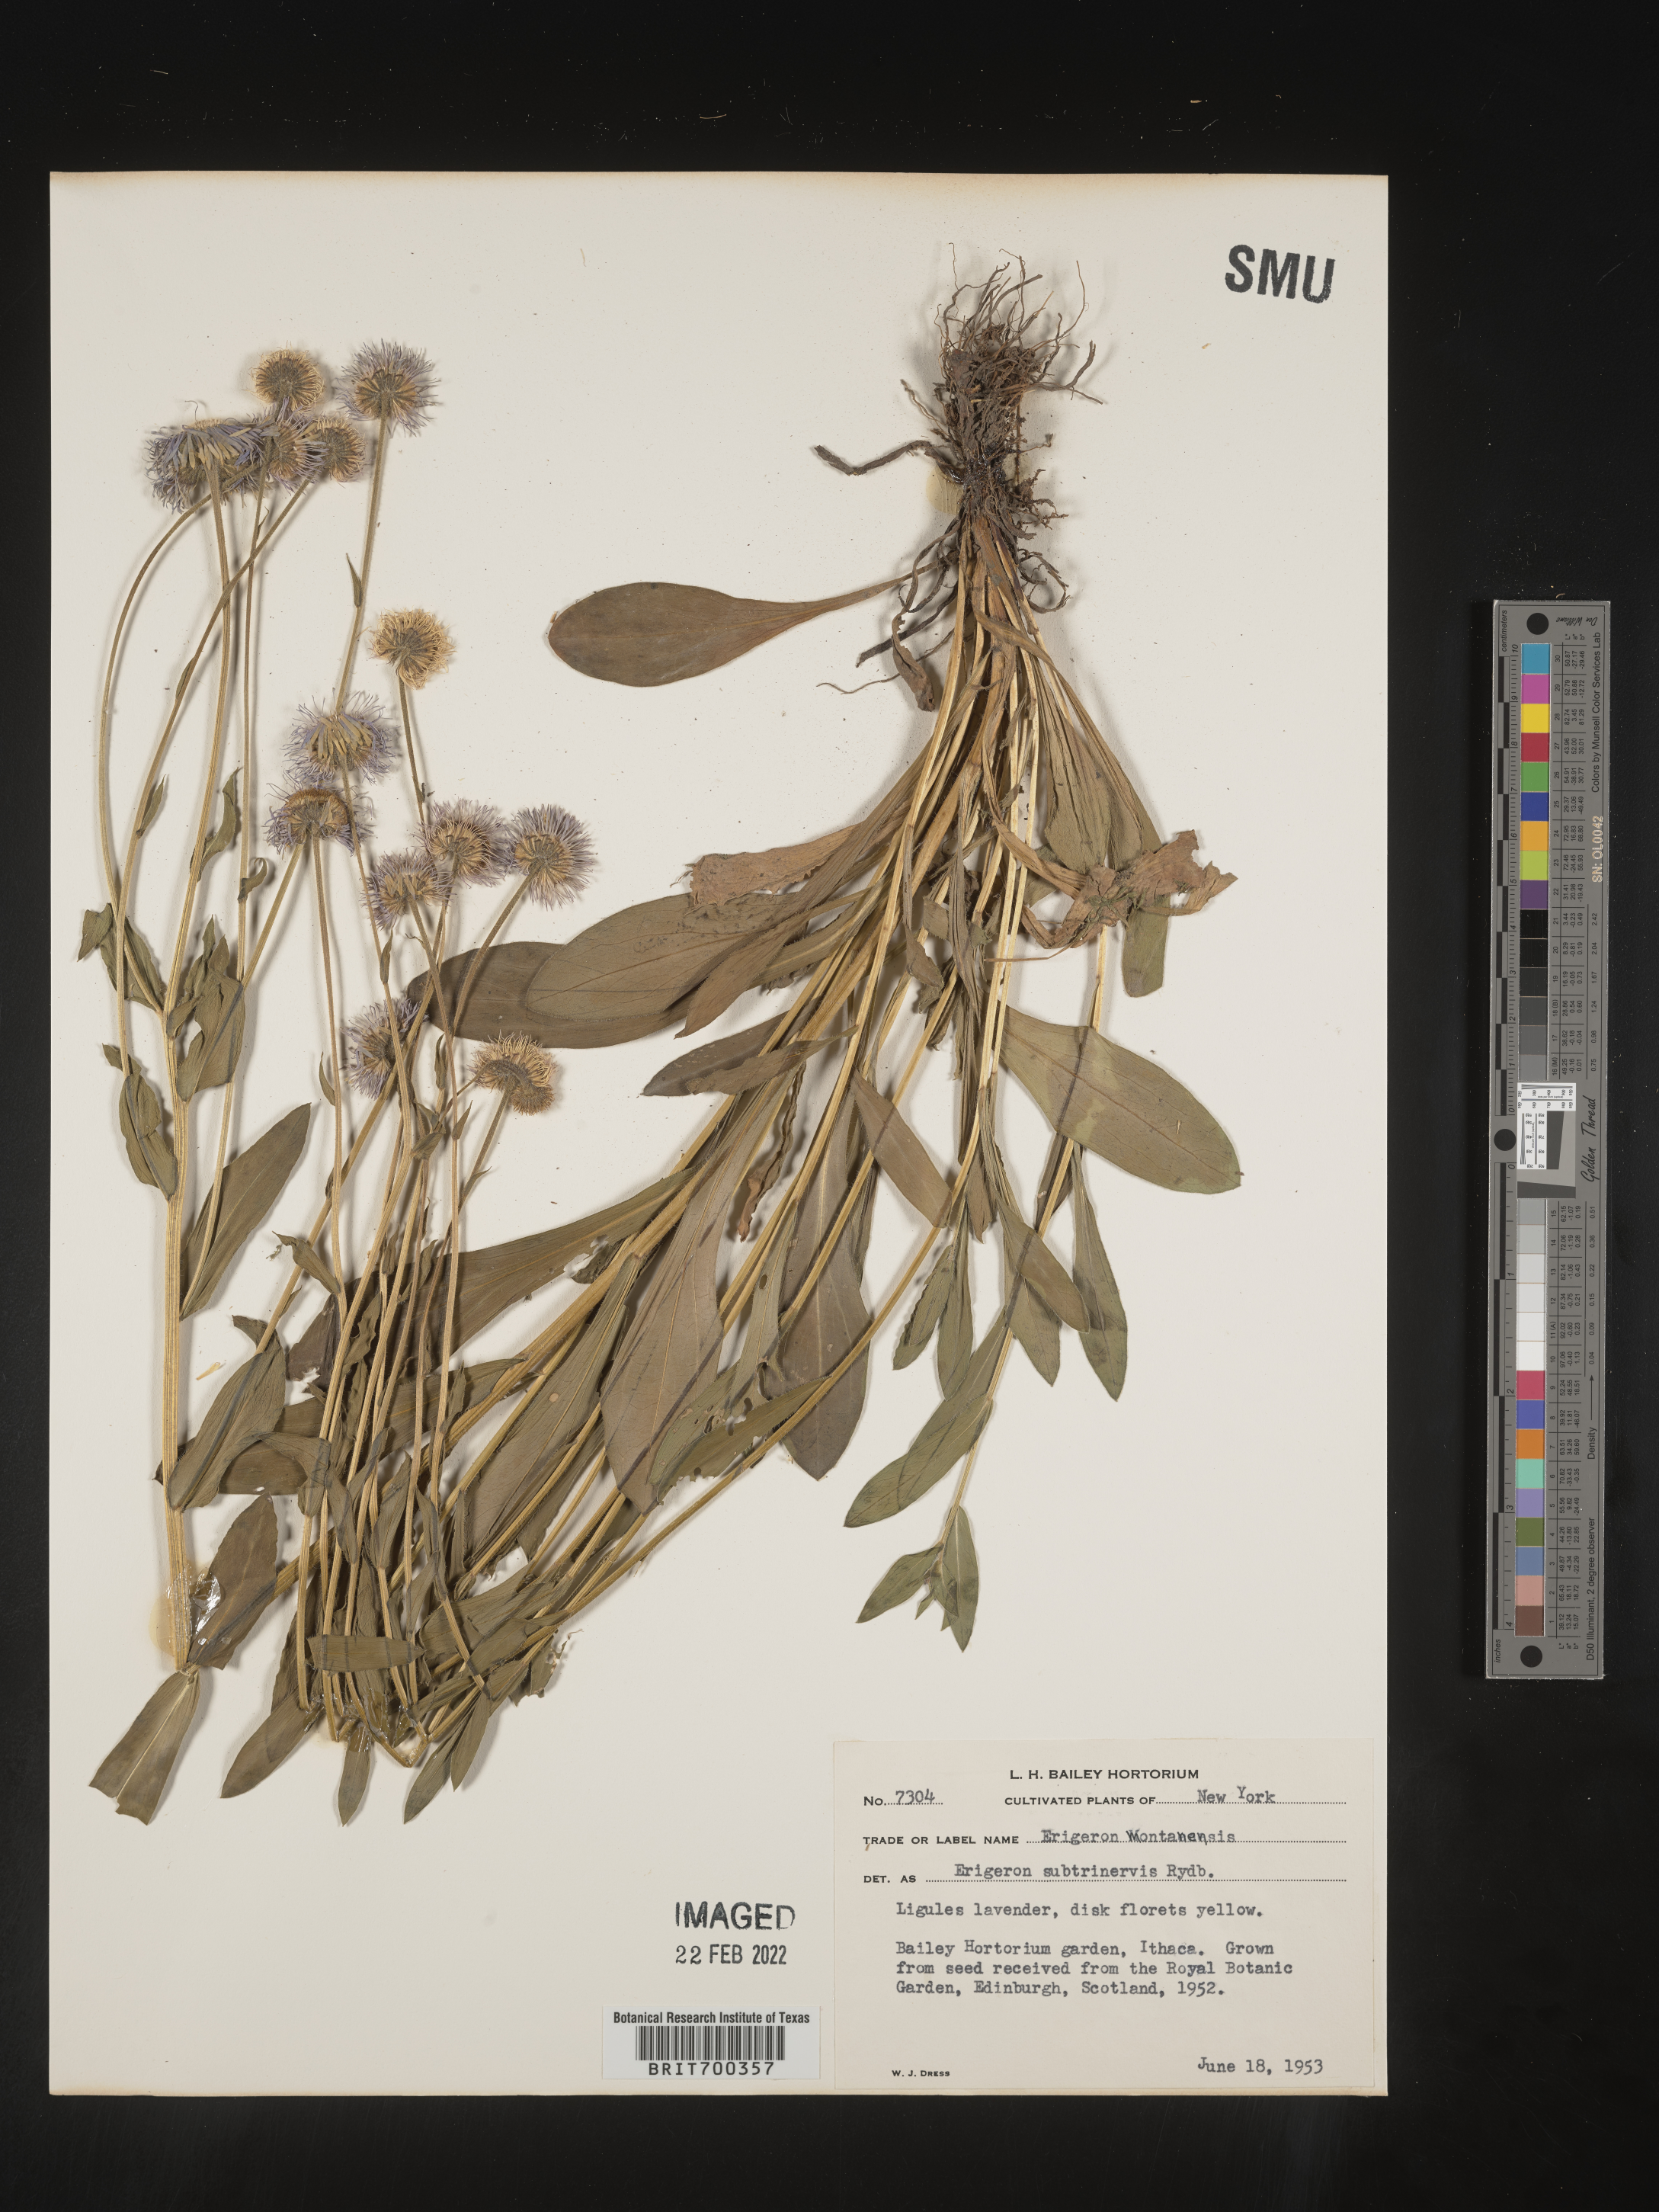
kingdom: Plantae
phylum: Tracheophyta
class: Magnoliopsida
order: Asterales
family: Asteraceae
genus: Erigeron
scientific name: Erigeron
